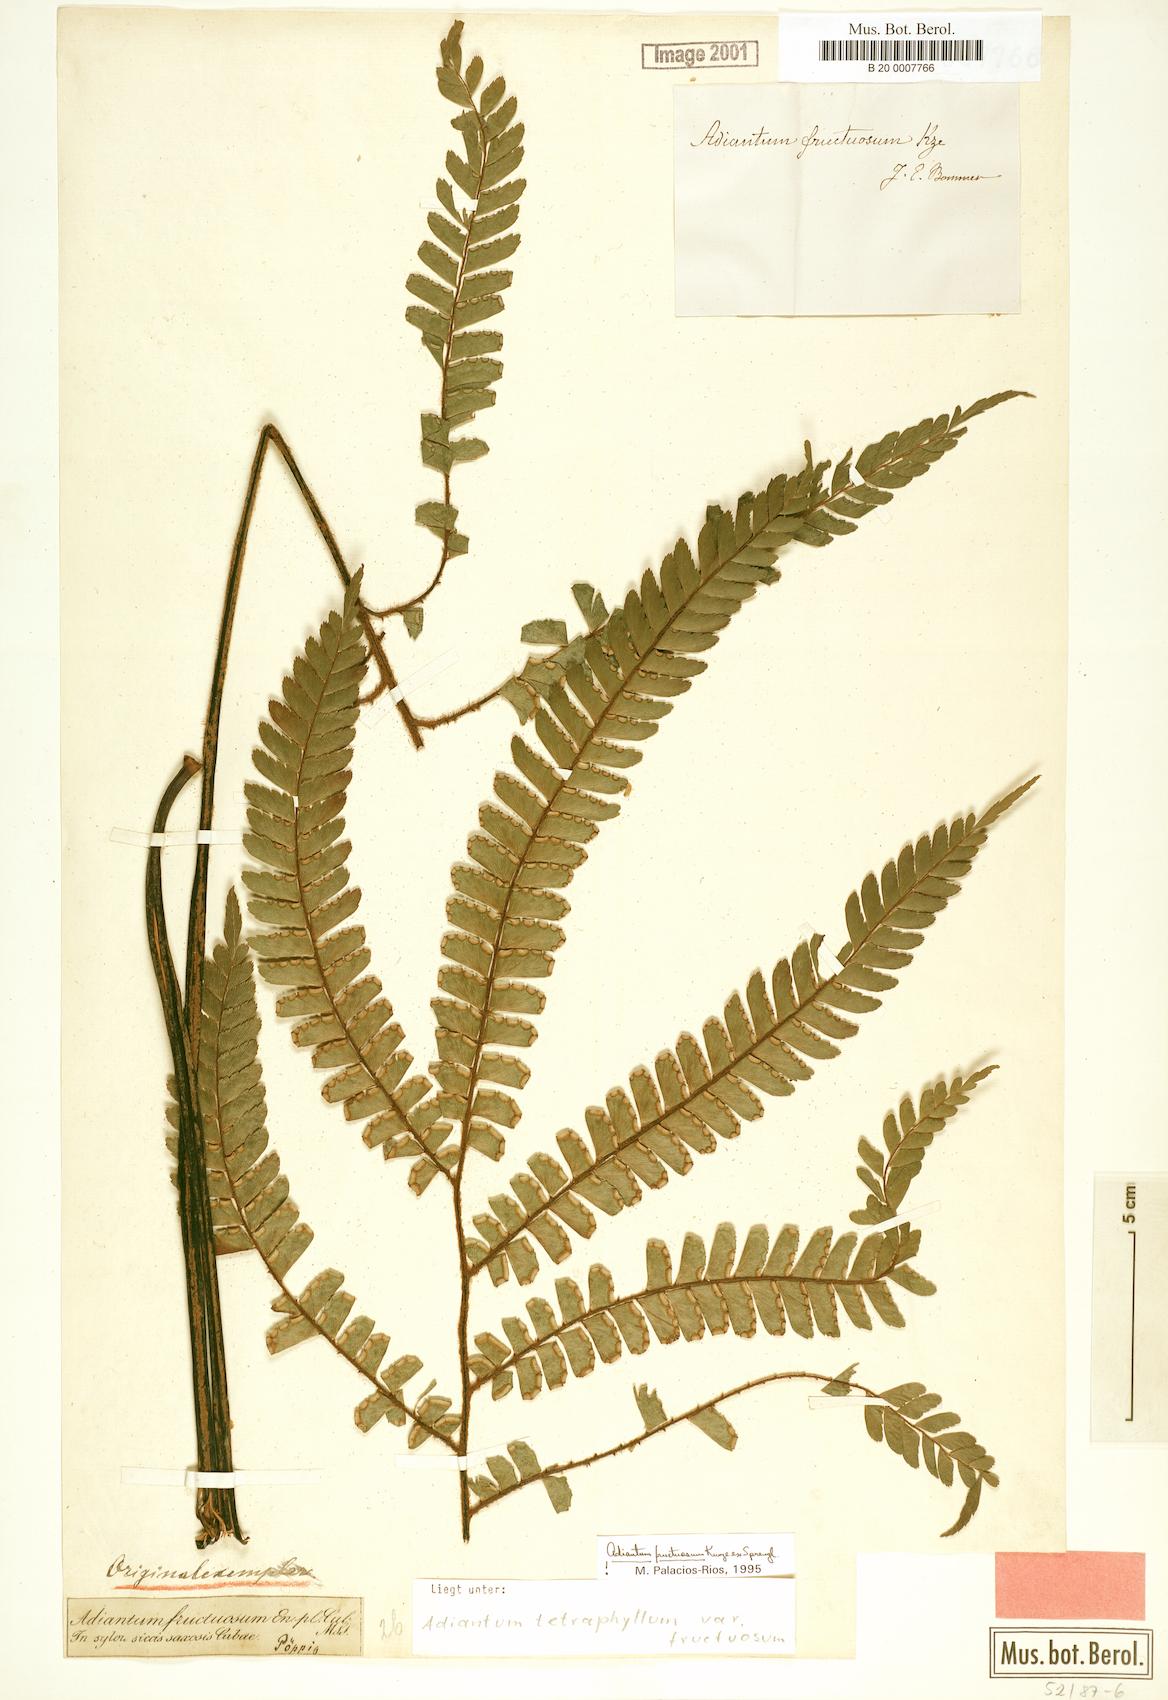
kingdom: Plantae
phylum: Tracheophyta
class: Polypodiopsida
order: Polypodiales
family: Pteridaceae
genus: Adiantum
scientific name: Adiantum tetraphyllum
